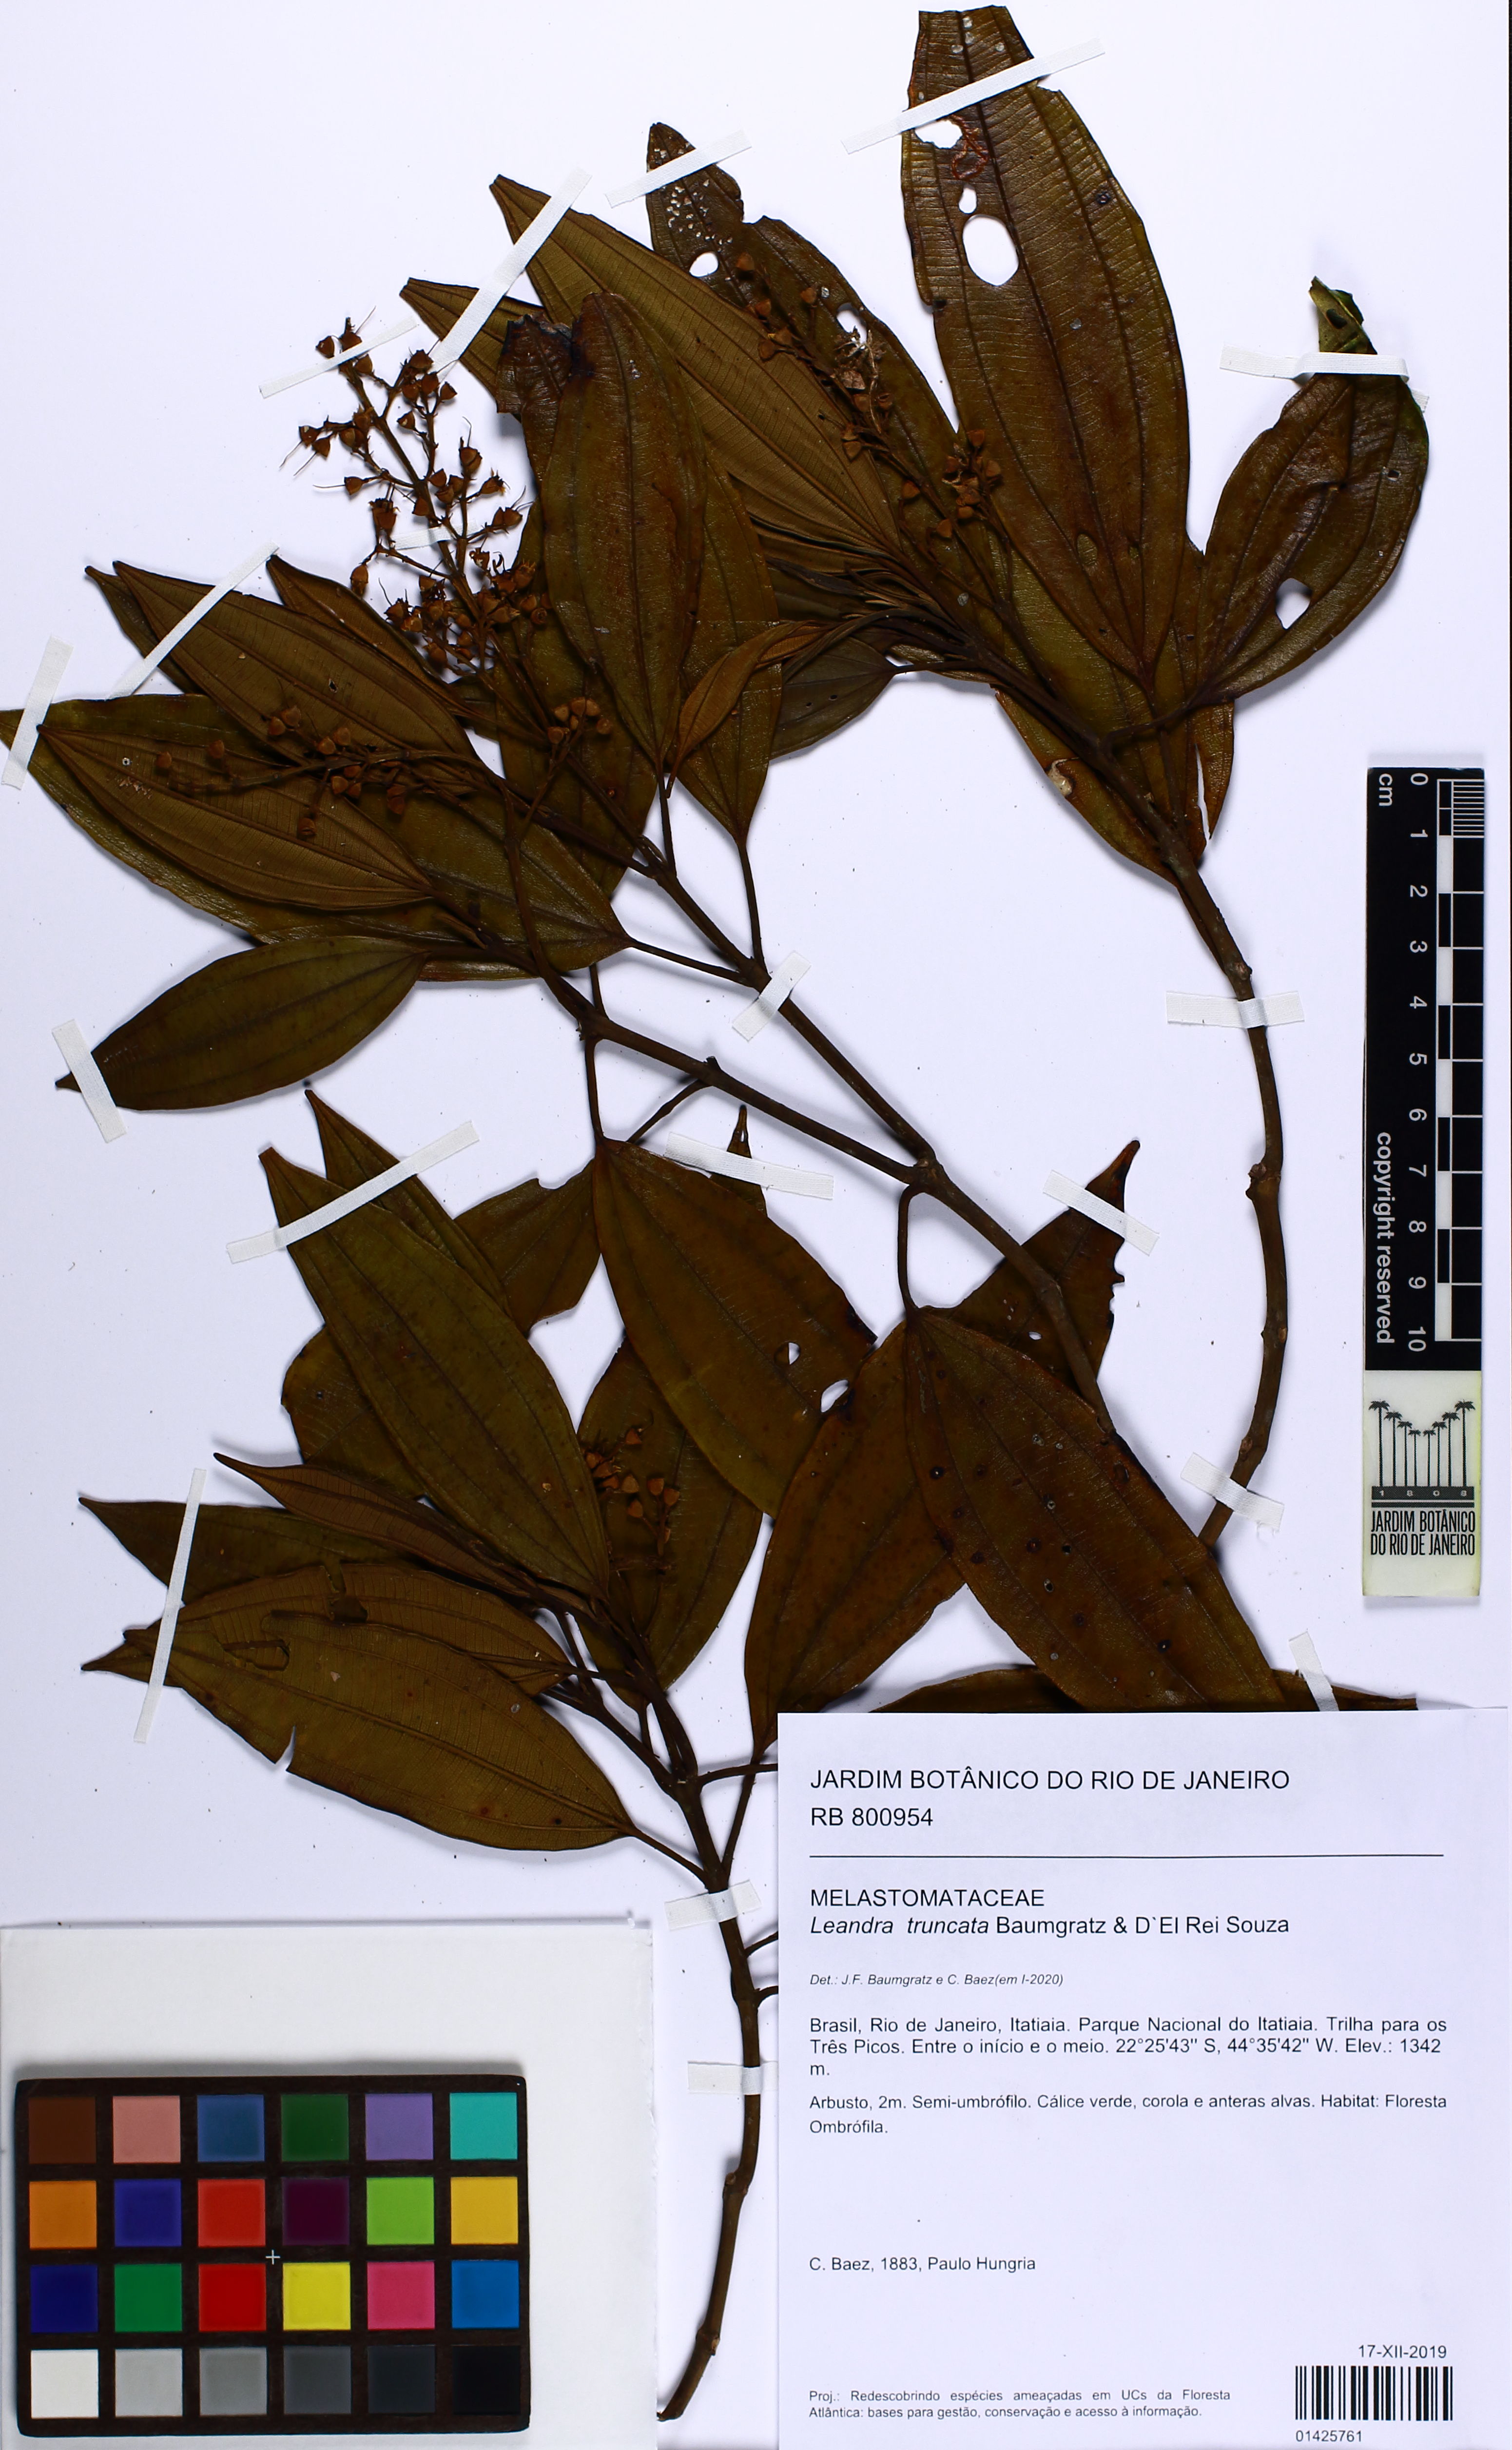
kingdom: Plantae
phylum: Tracheophyta
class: Magnoliopsida
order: Myrtales
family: Melastomataceae
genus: Miconia
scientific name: Miconia leatruncata
